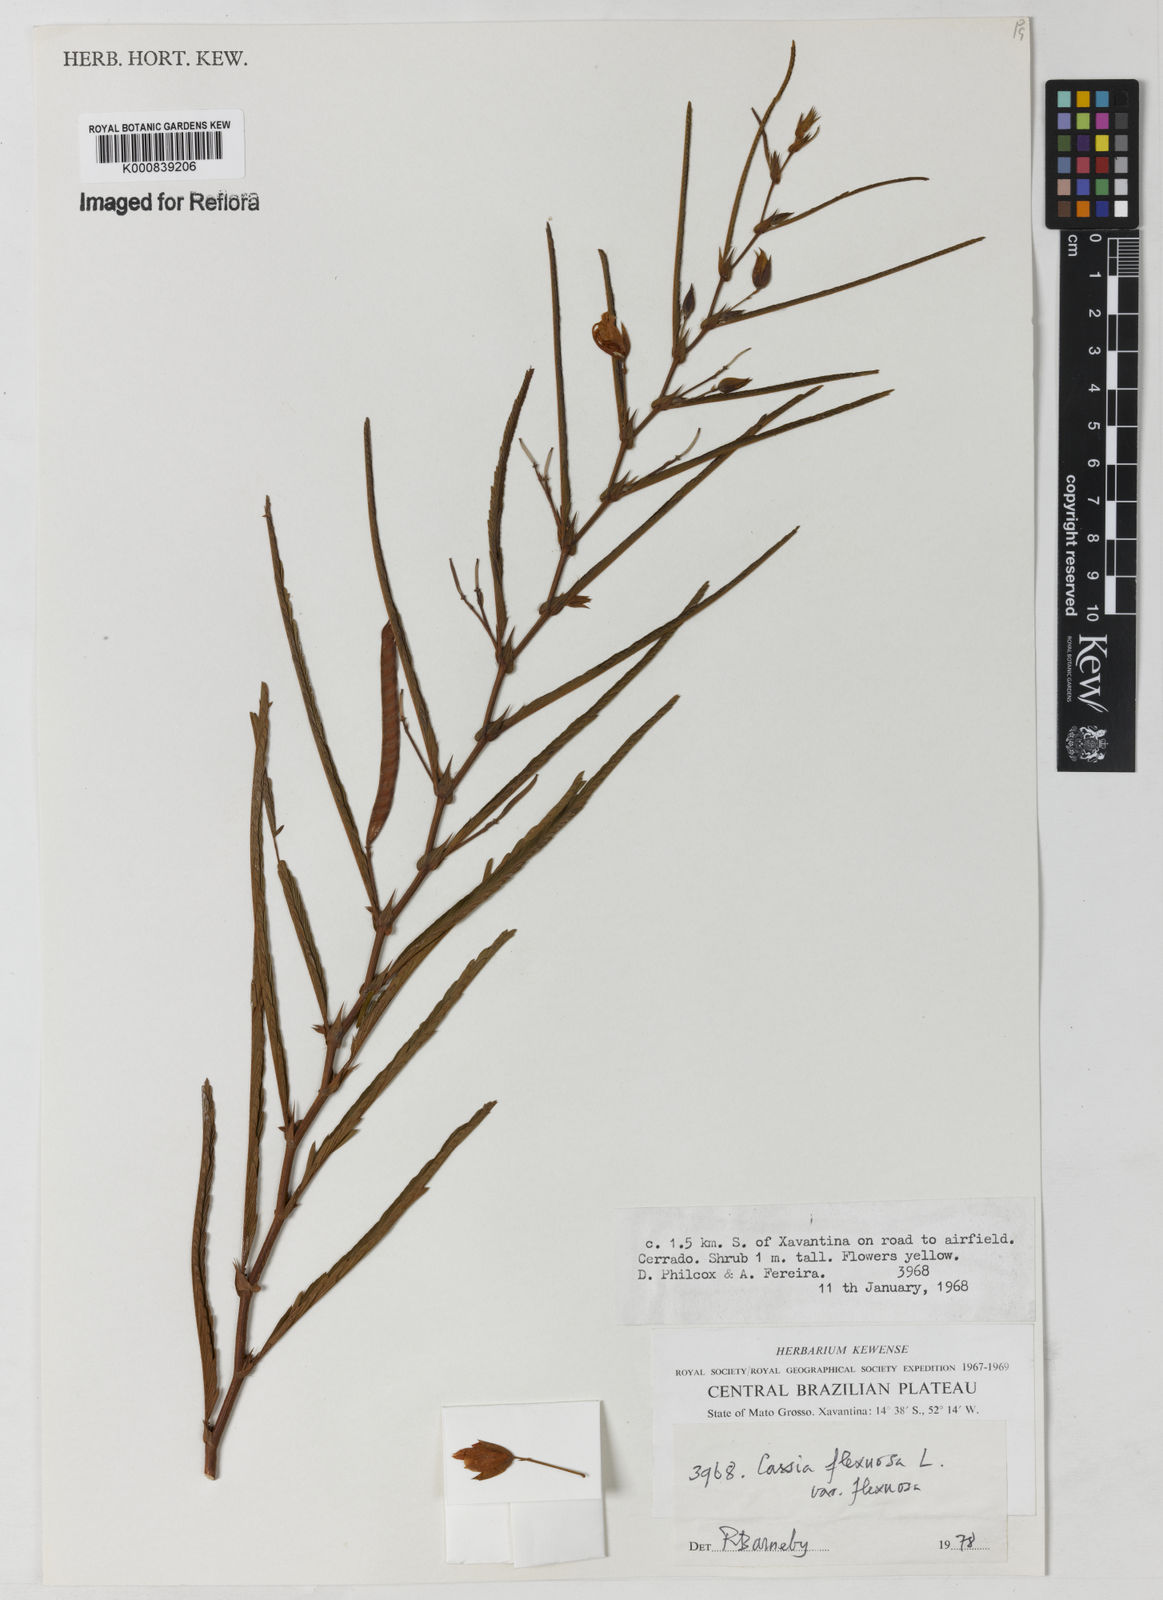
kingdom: Plantae
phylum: Tracheophyta
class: Magnoliopsida
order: Fabales
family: Fabaceae
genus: Chamaecrista
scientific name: Chamaecrista flexuosa
